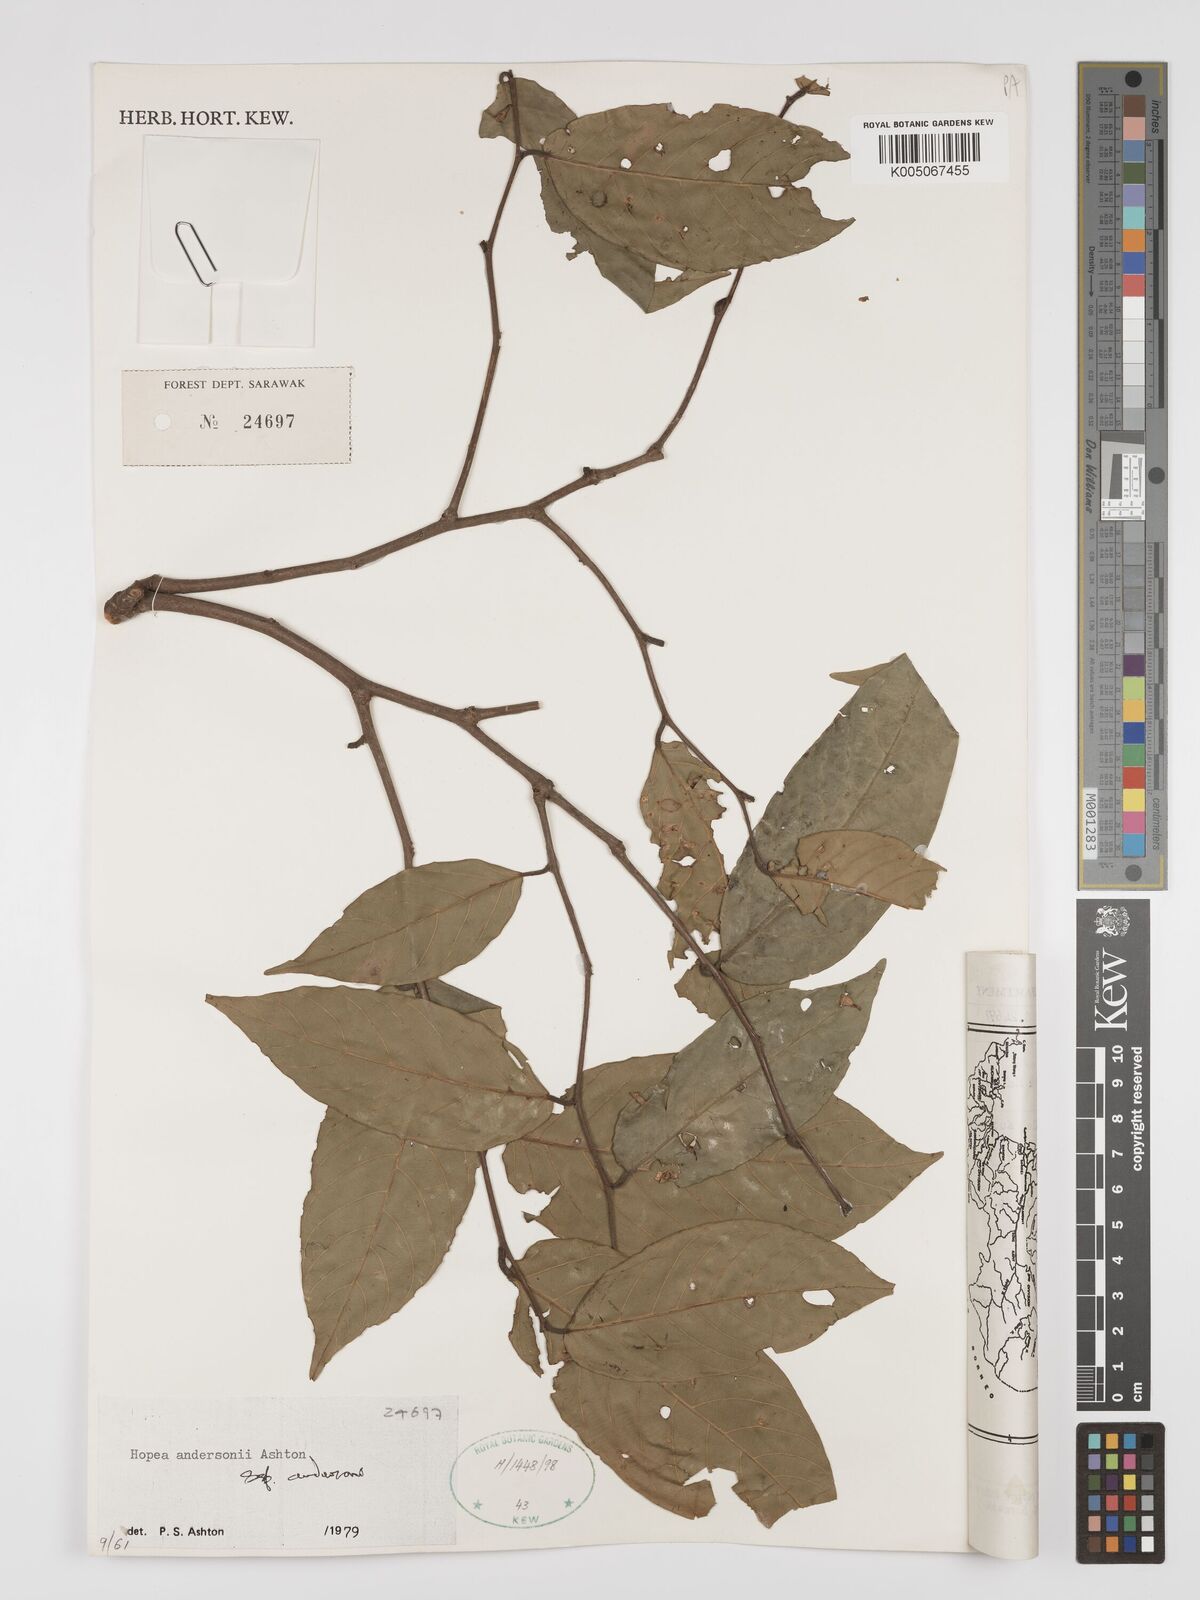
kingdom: Plantae
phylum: Tracheophyta
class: Magnoliopsida
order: Malvales
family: Dipterocarpaceae
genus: Hopea
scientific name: Hopea andersonii
